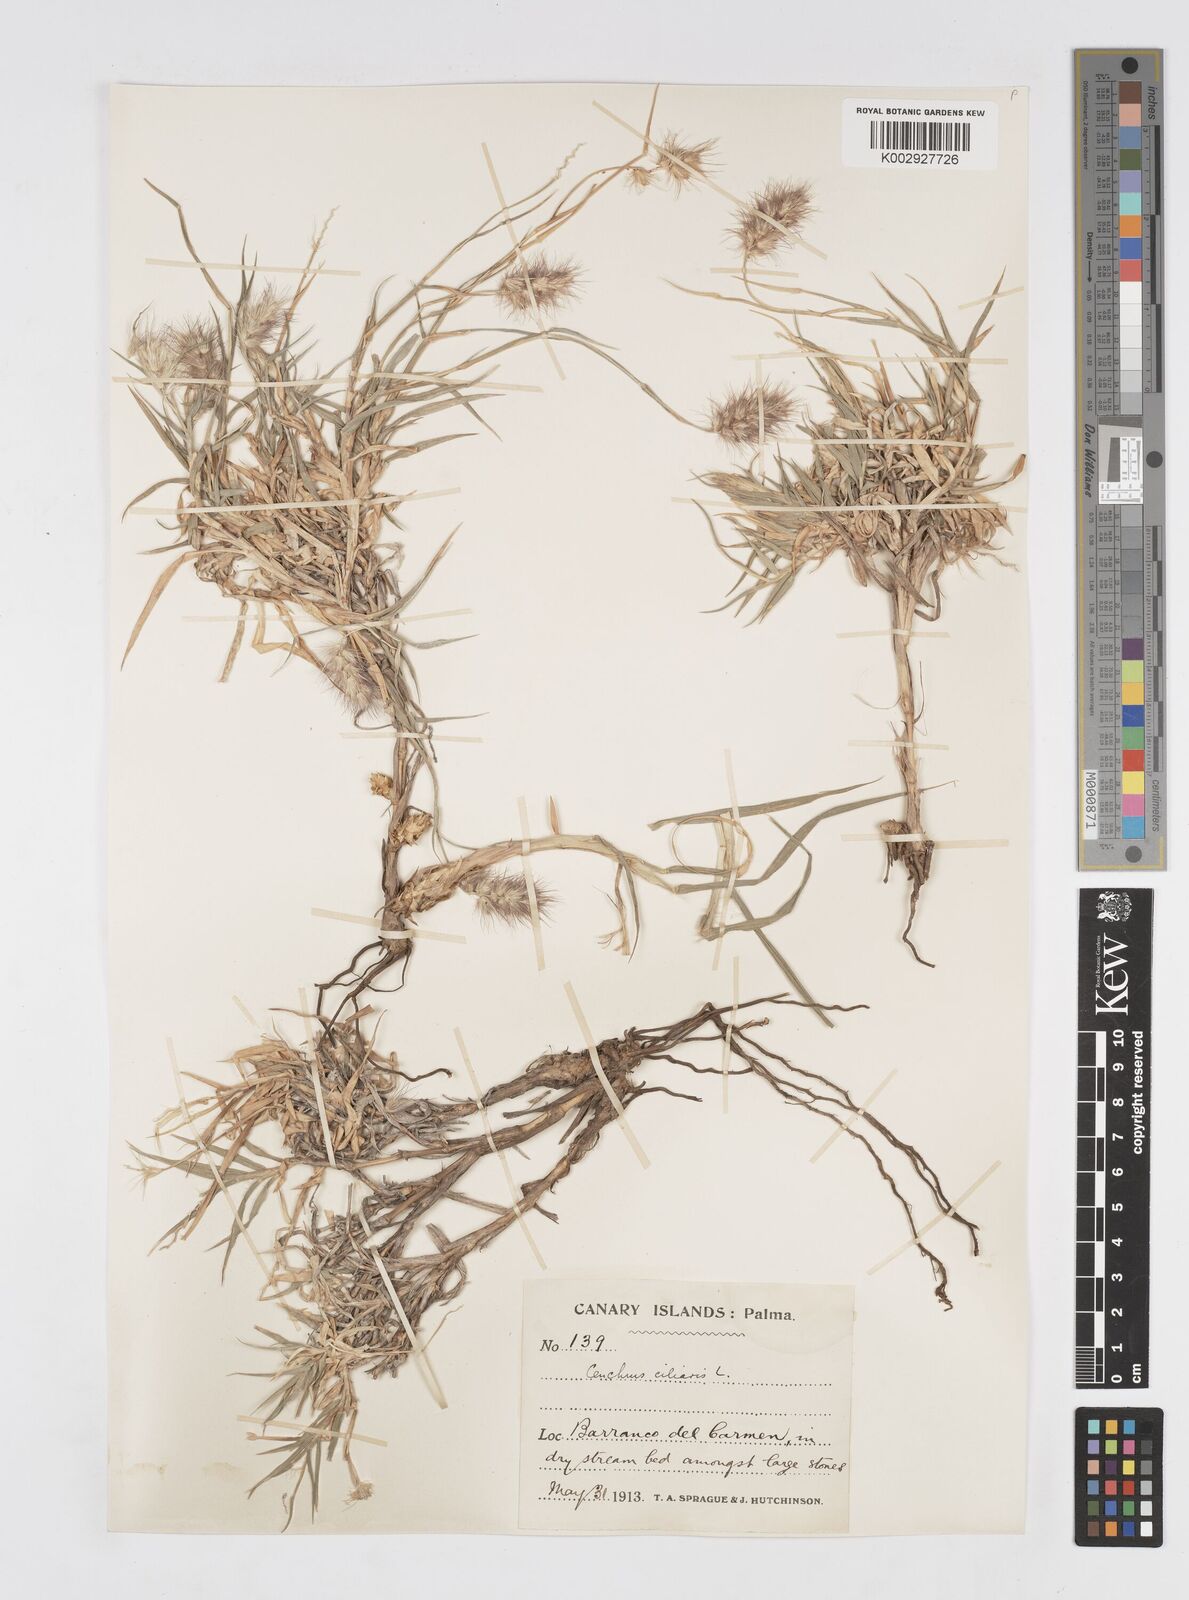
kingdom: Plantae
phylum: Tracheophyta
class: Liliopsida
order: Poales
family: Poaceae
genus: Cenchrus
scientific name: Cenchrus ciliaris
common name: Buffelgrass
